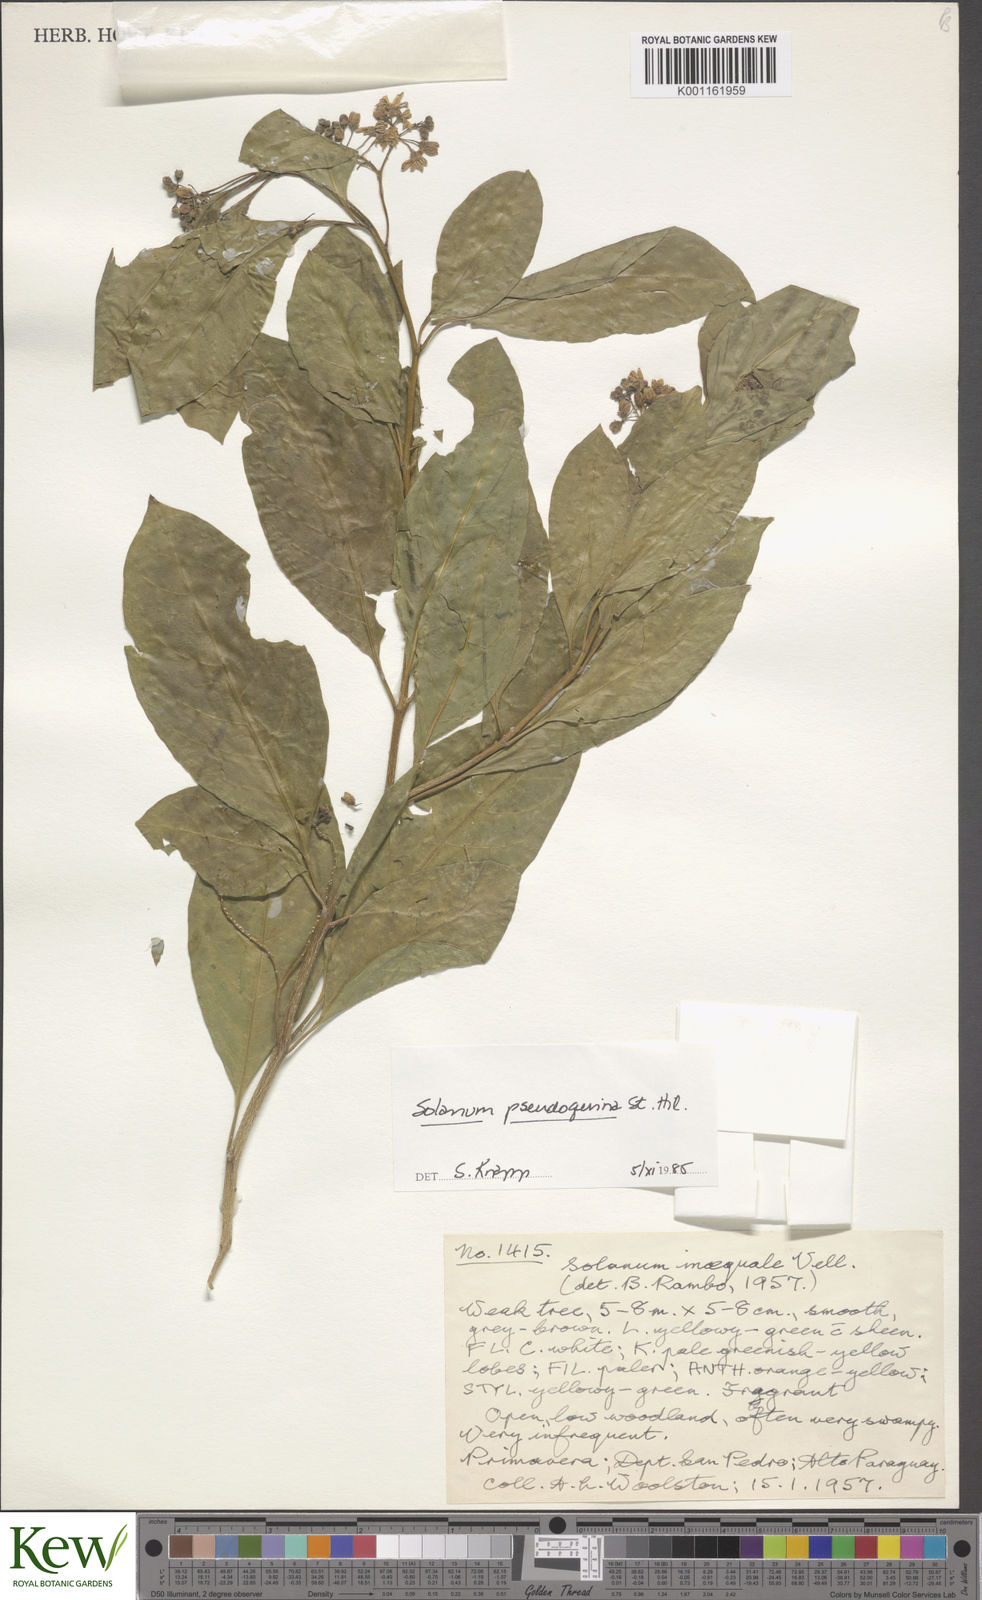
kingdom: Plantae
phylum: Tracheophyta
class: Magnoliopsida
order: Solanales
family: Solanaceae
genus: Solanum
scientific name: Solanum pseudoquina
